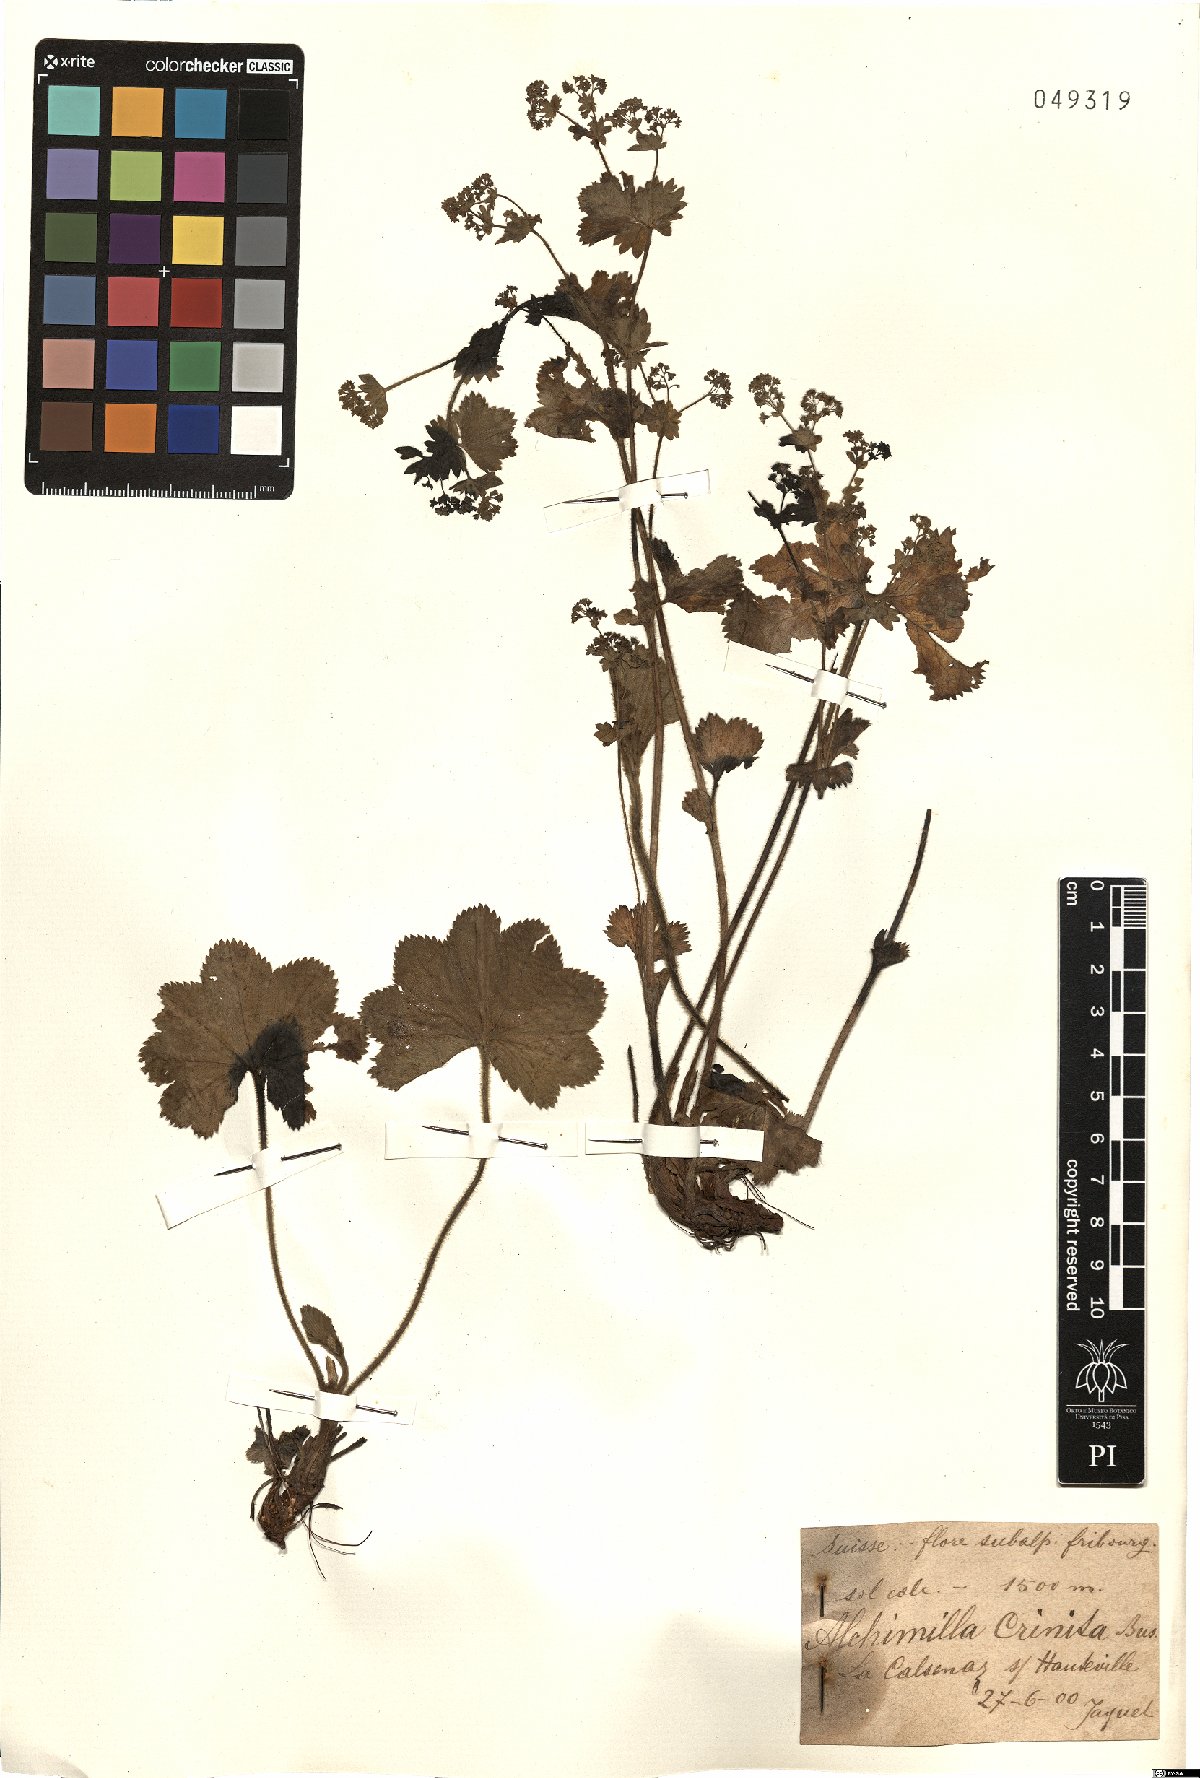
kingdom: Plantae
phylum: Tracheophyta
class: Magnoliopsida
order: Rosales
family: Rosaceae
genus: Alchemilla
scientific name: Alchemilla crinita
